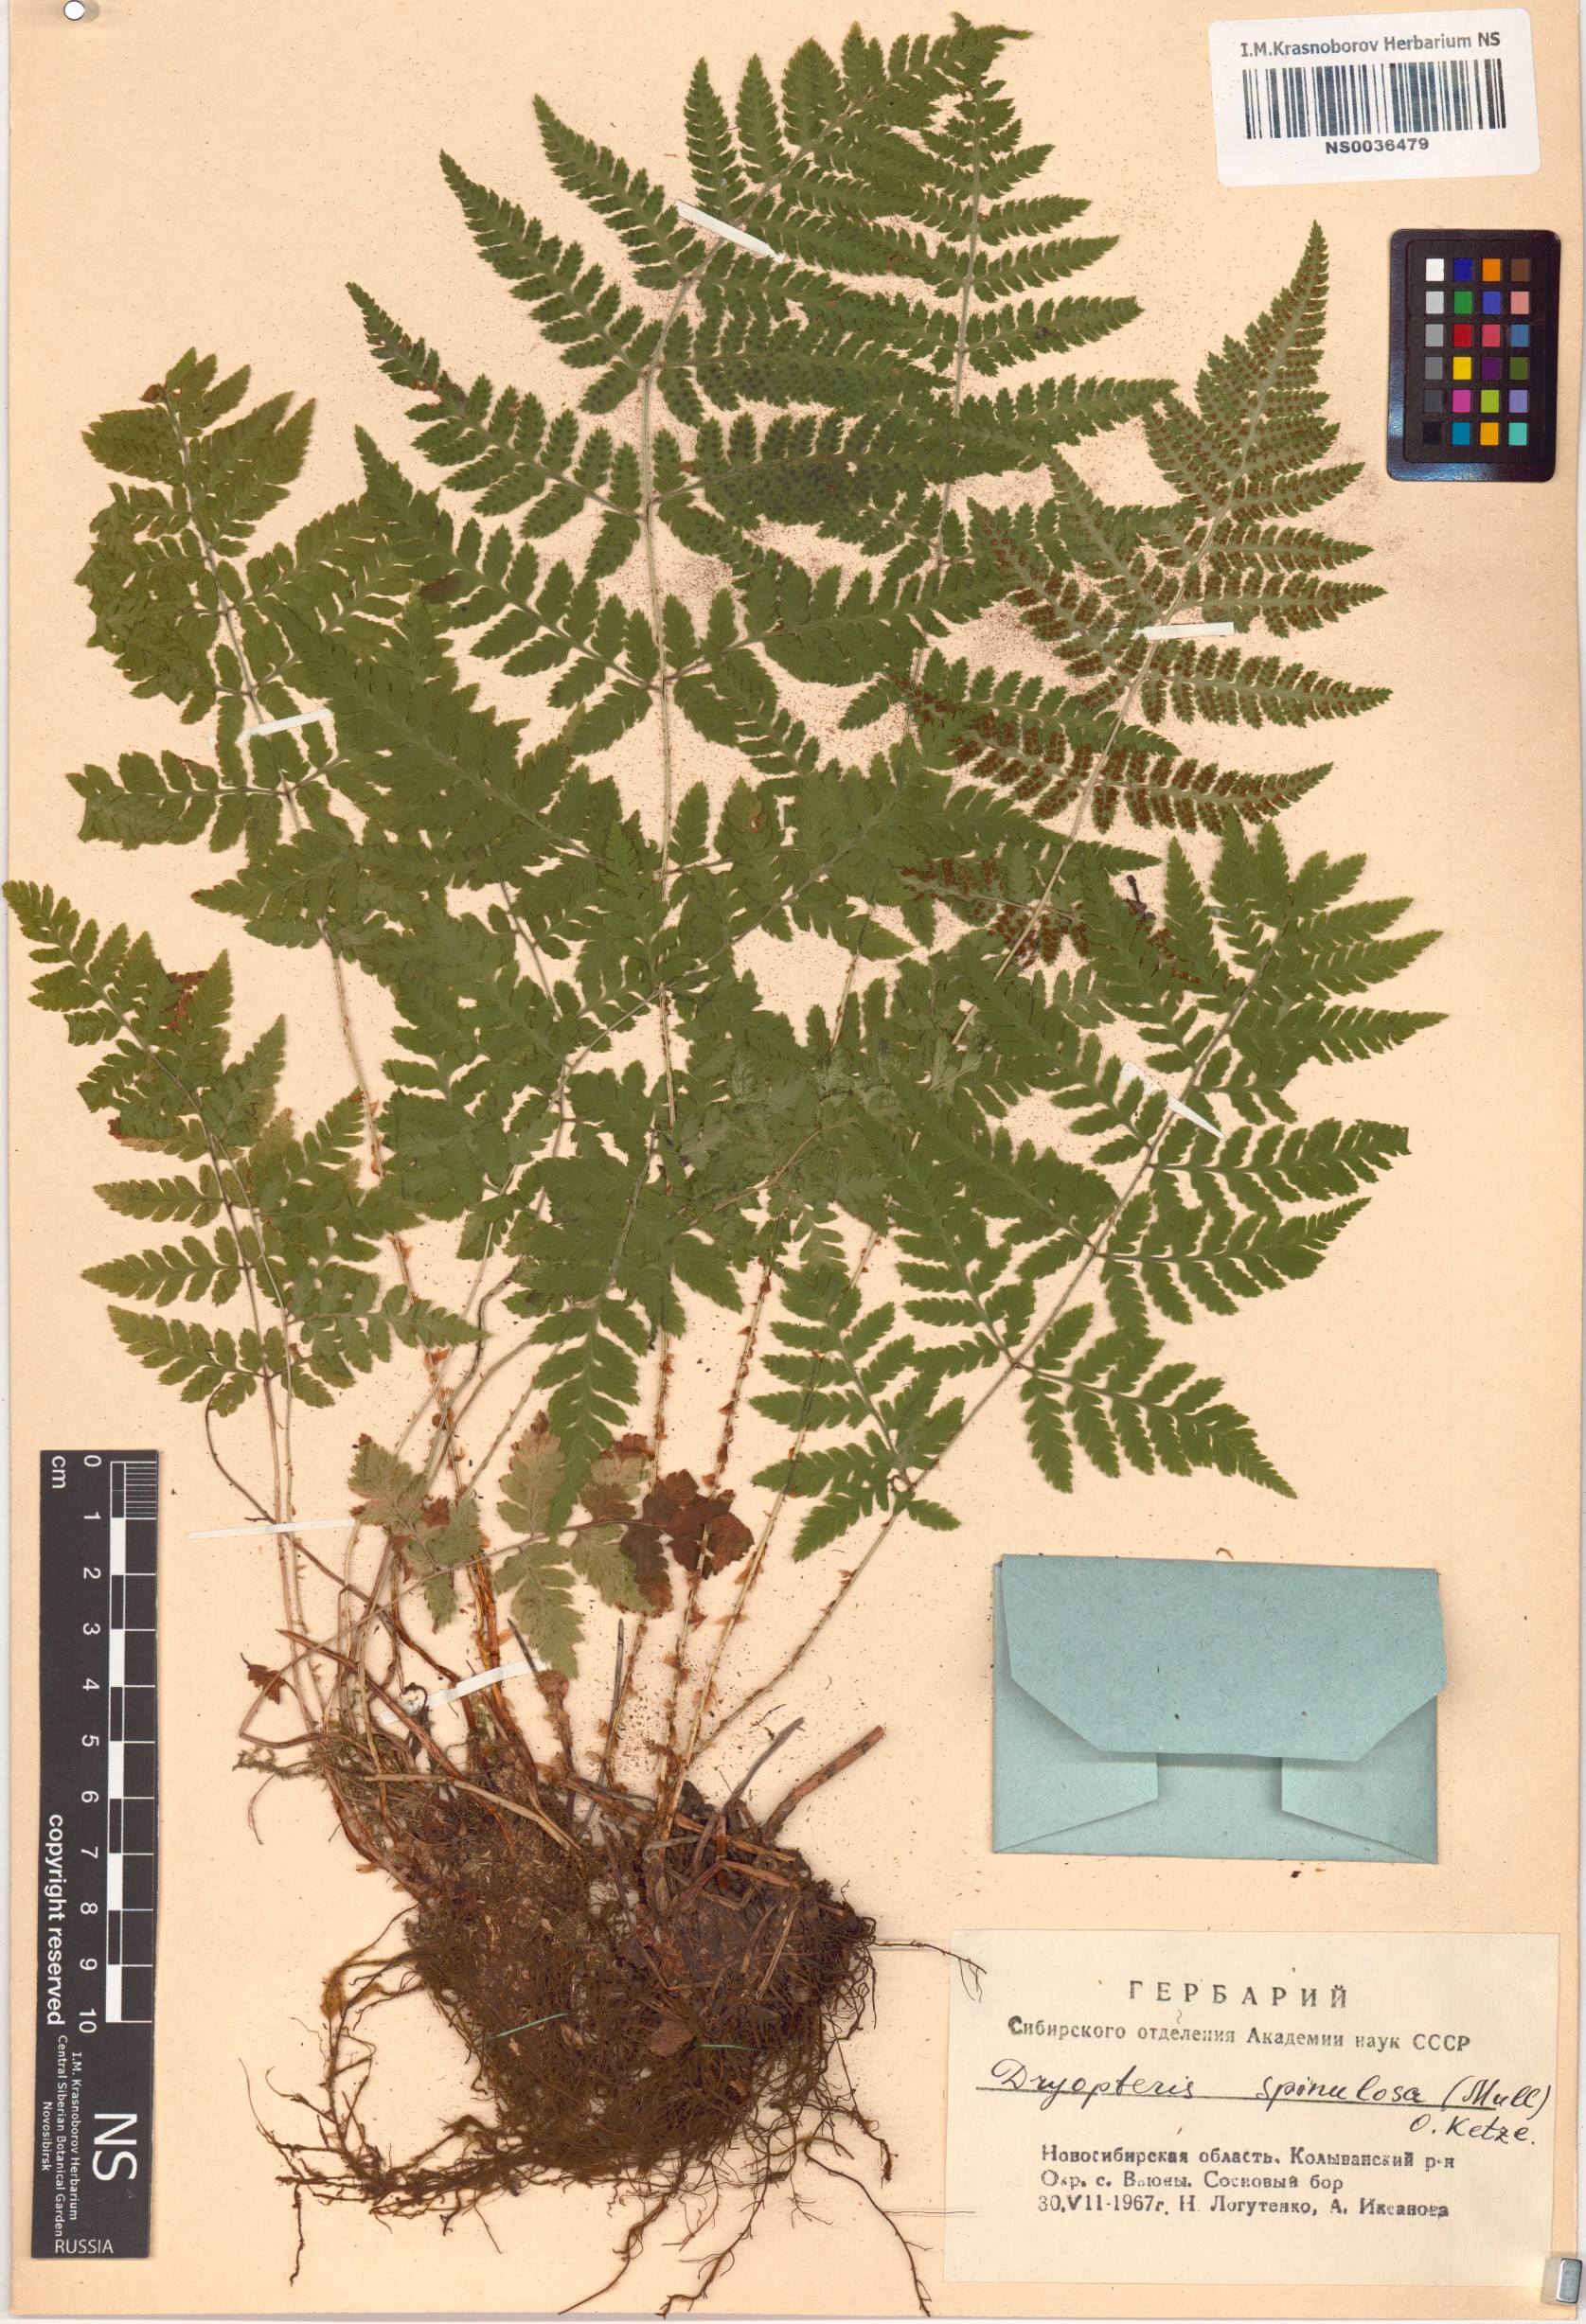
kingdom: Plantae
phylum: Tracheophyta
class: Polypodiopsida
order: Polypodiales
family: Dryopteridaceae
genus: Dryopteris
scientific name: Dryopteris carthusiana
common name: Narrow buckler-fern
